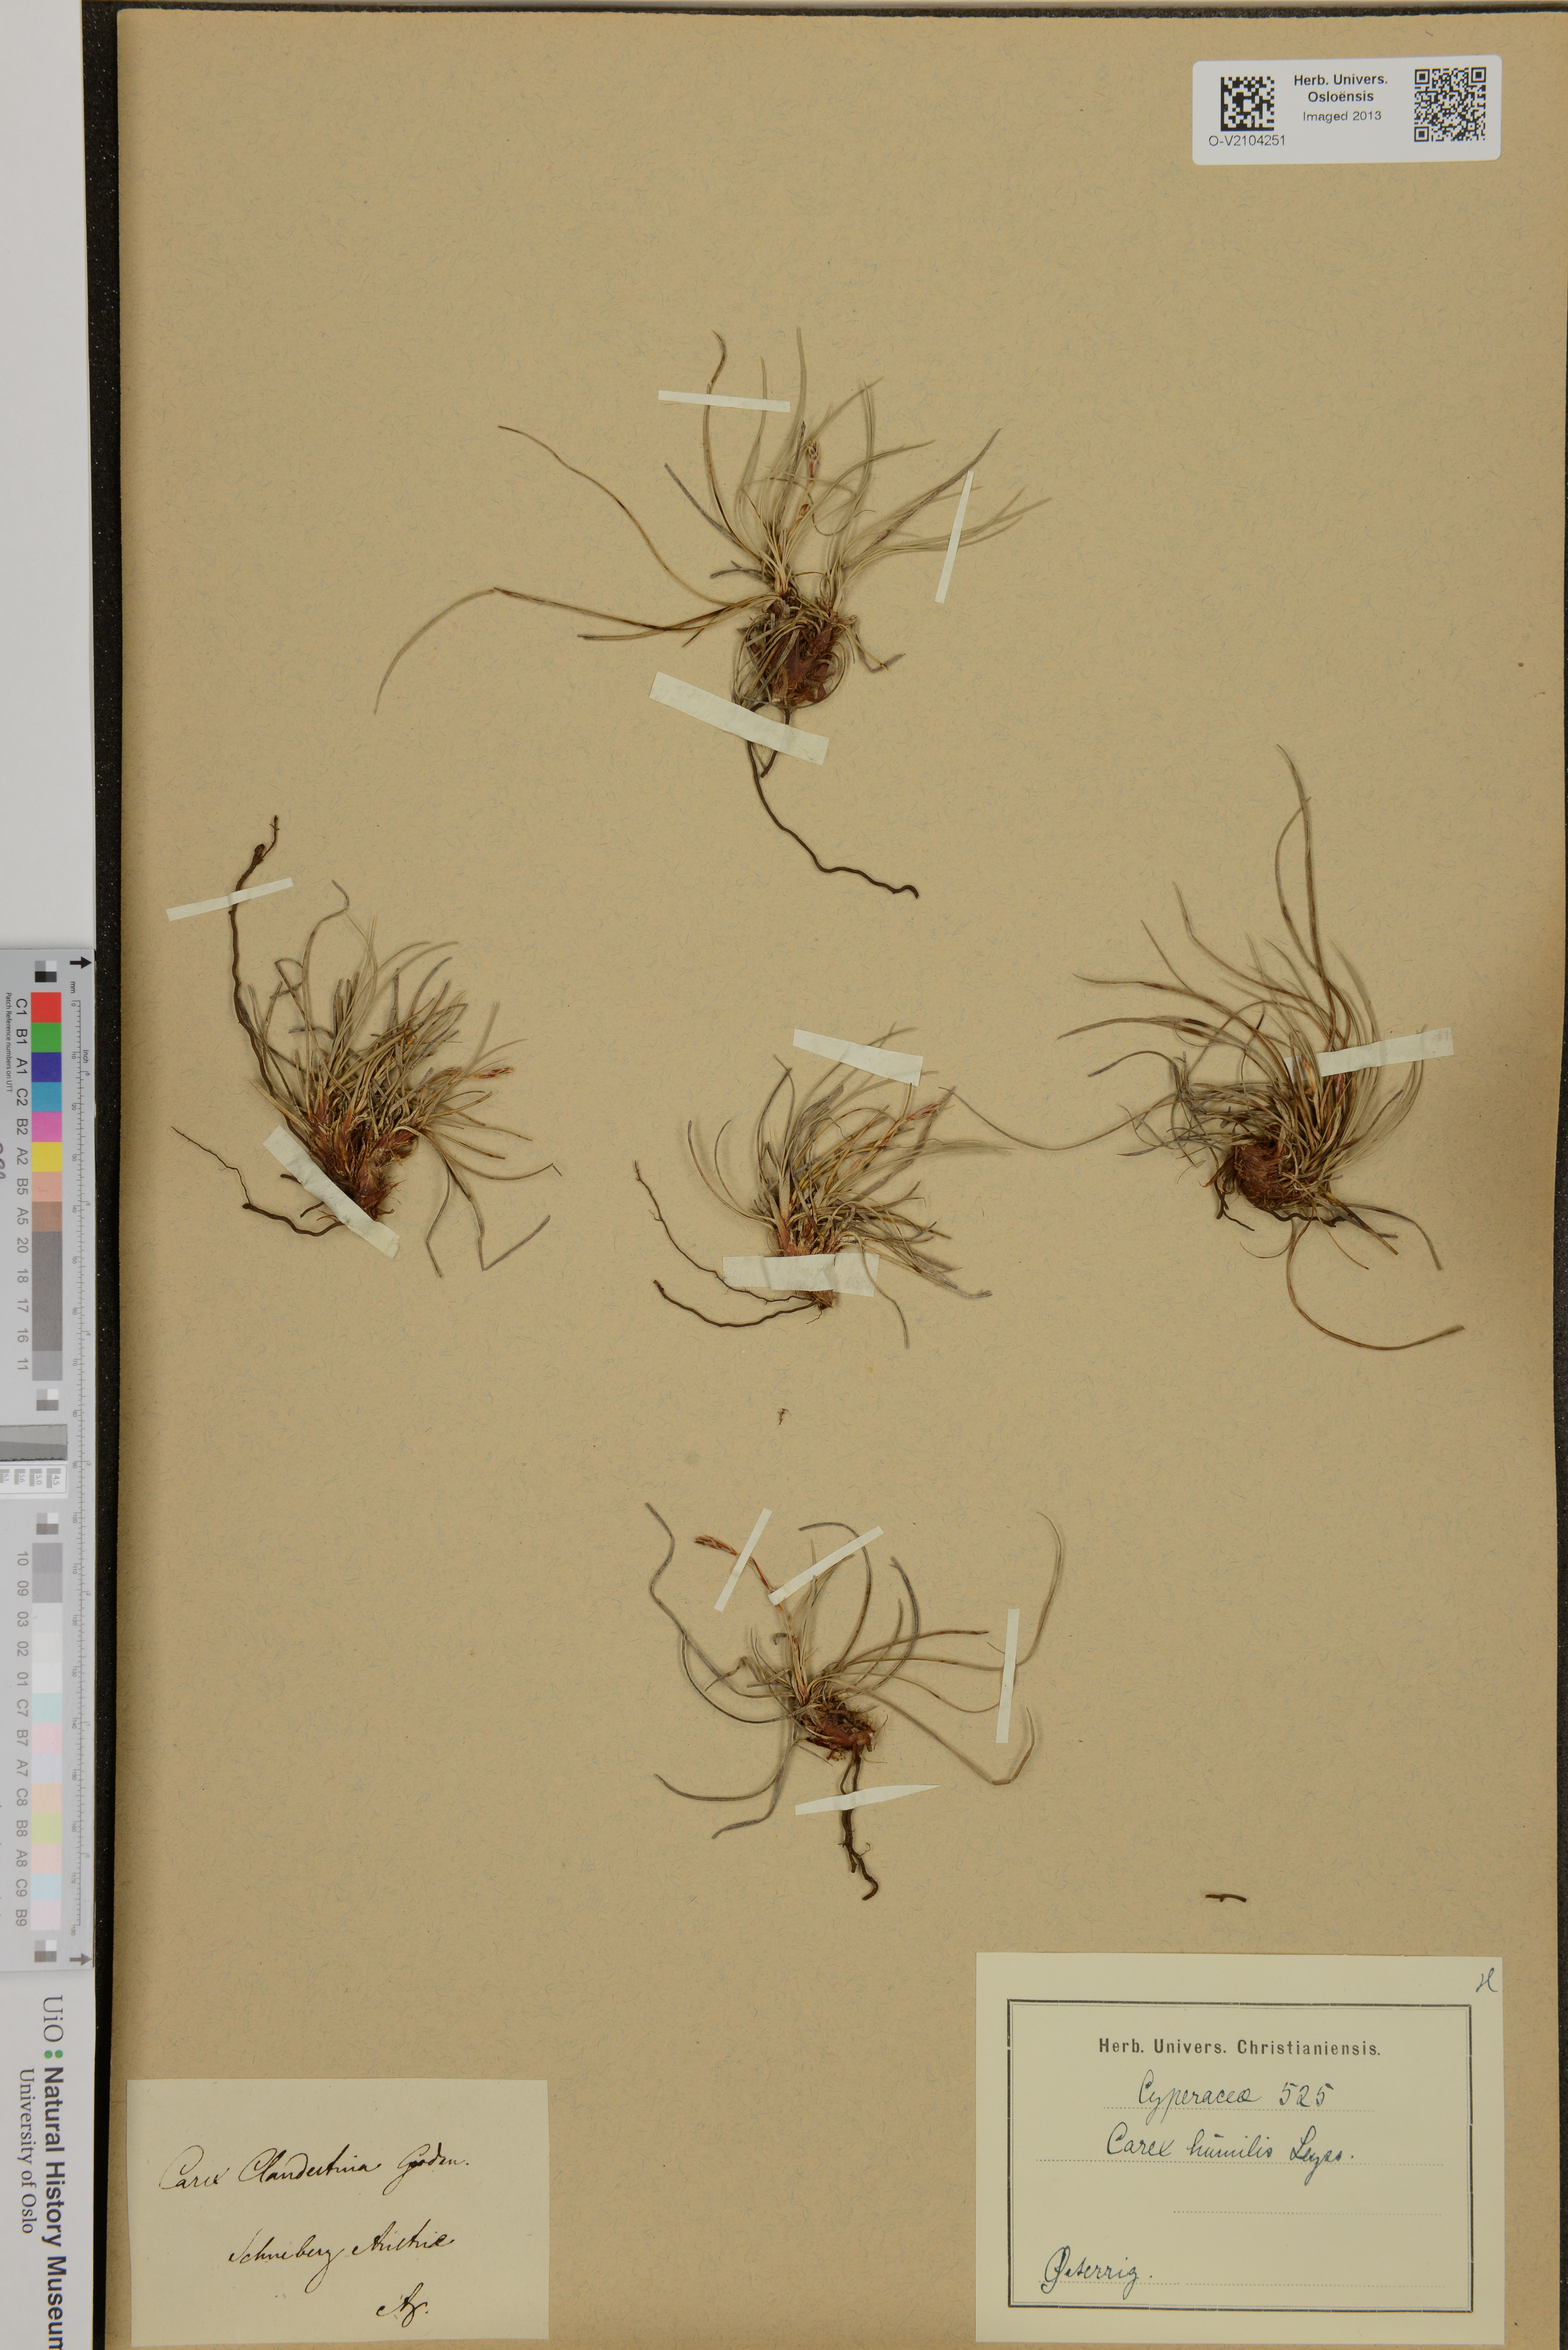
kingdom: Plantae
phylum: Tracheophyta
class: Liliopsida
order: Poales
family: Cyperaceae
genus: Carex
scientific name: Carex humilis
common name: Dwarf sedge
